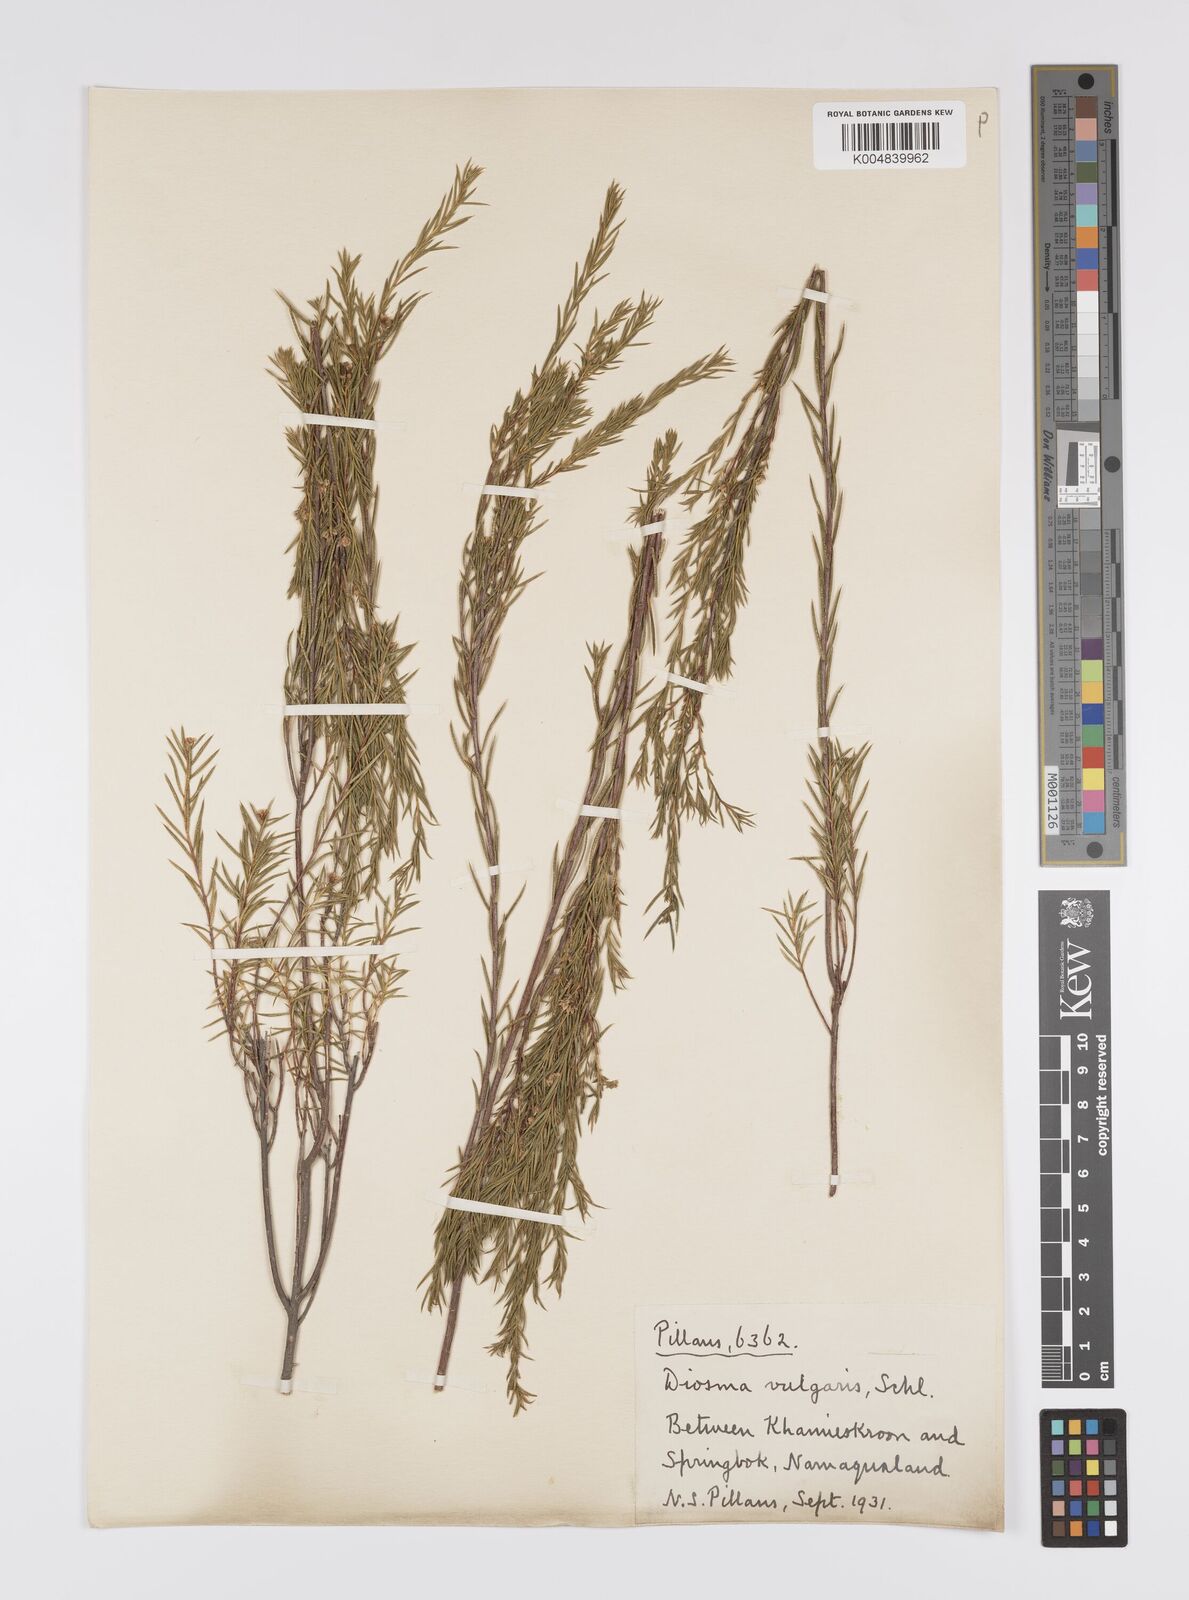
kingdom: Plantae
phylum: Tracheophyta
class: Magnoliopsida
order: Sapindales
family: Rutaceae
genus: Diosma
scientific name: Diosma acmaeophylla
